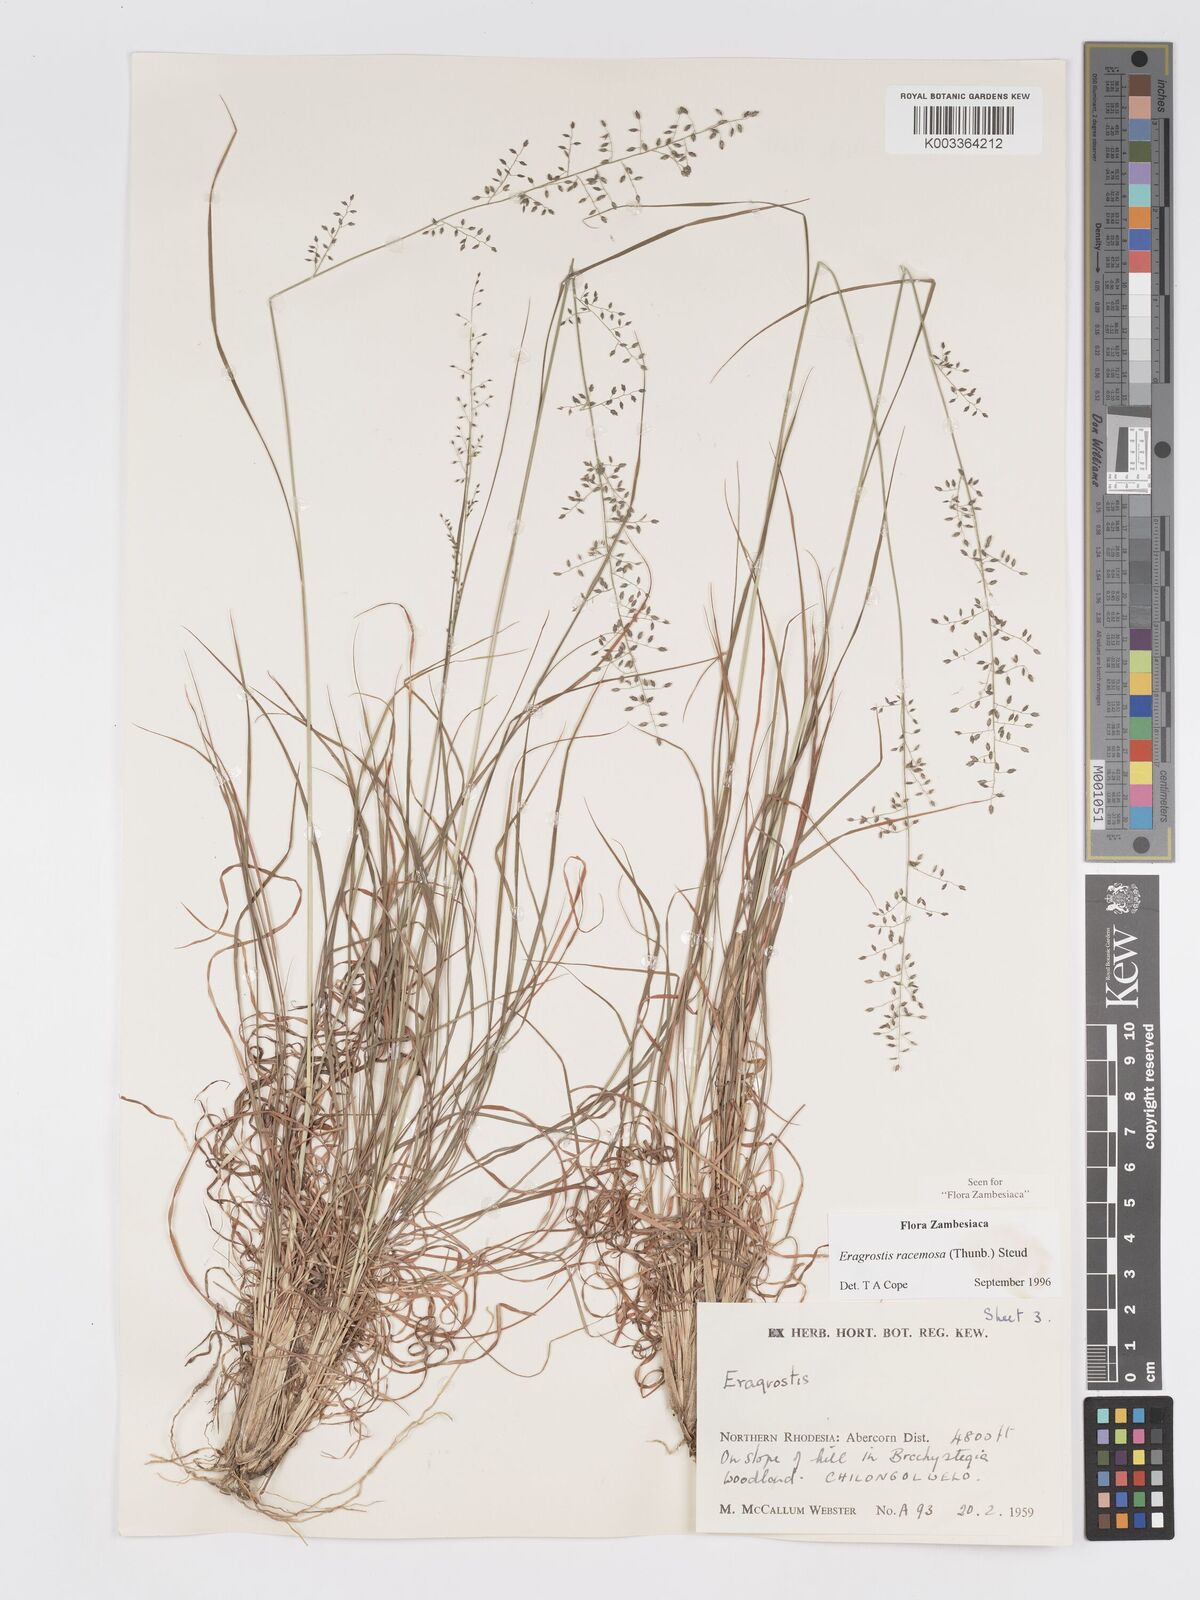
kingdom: Plantae
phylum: Tracheophyta
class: Liliopsida
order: Poales
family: Poaceae
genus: Eragrostis
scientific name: Eragrostis racemosa
